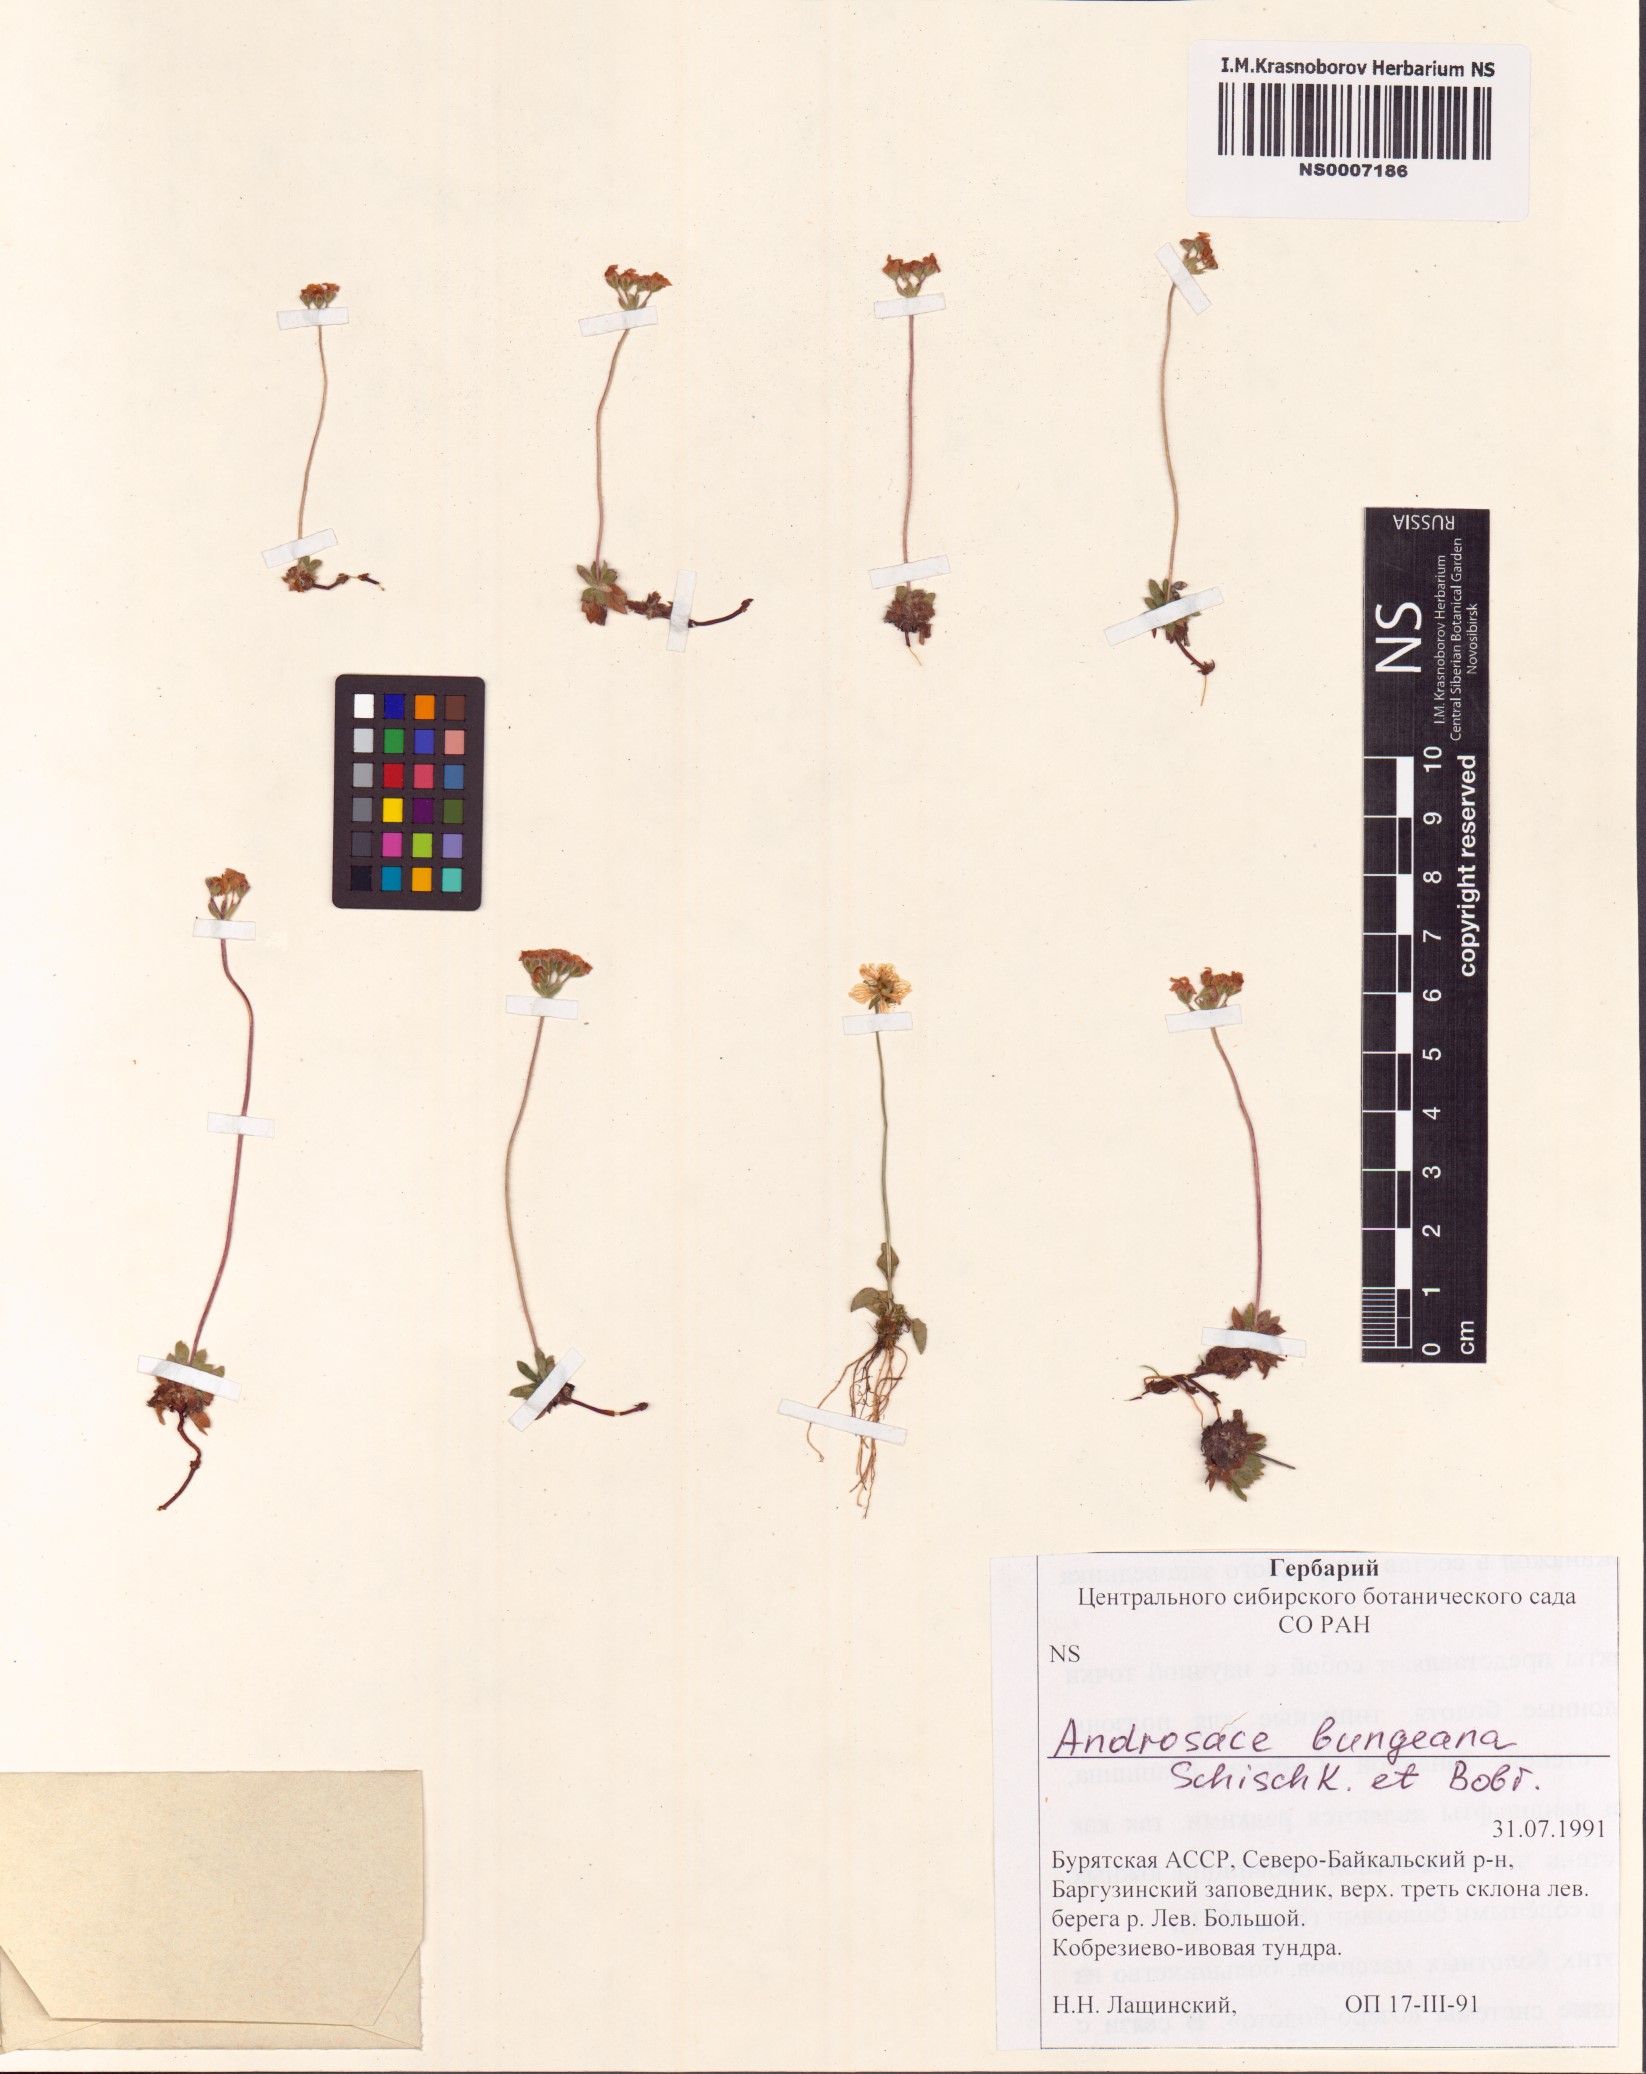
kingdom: Plantae
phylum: Tracheophyta
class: Magnoliopsida
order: Ericales
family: Primulaceae
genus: Androsace
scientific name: Androsace bungeana
